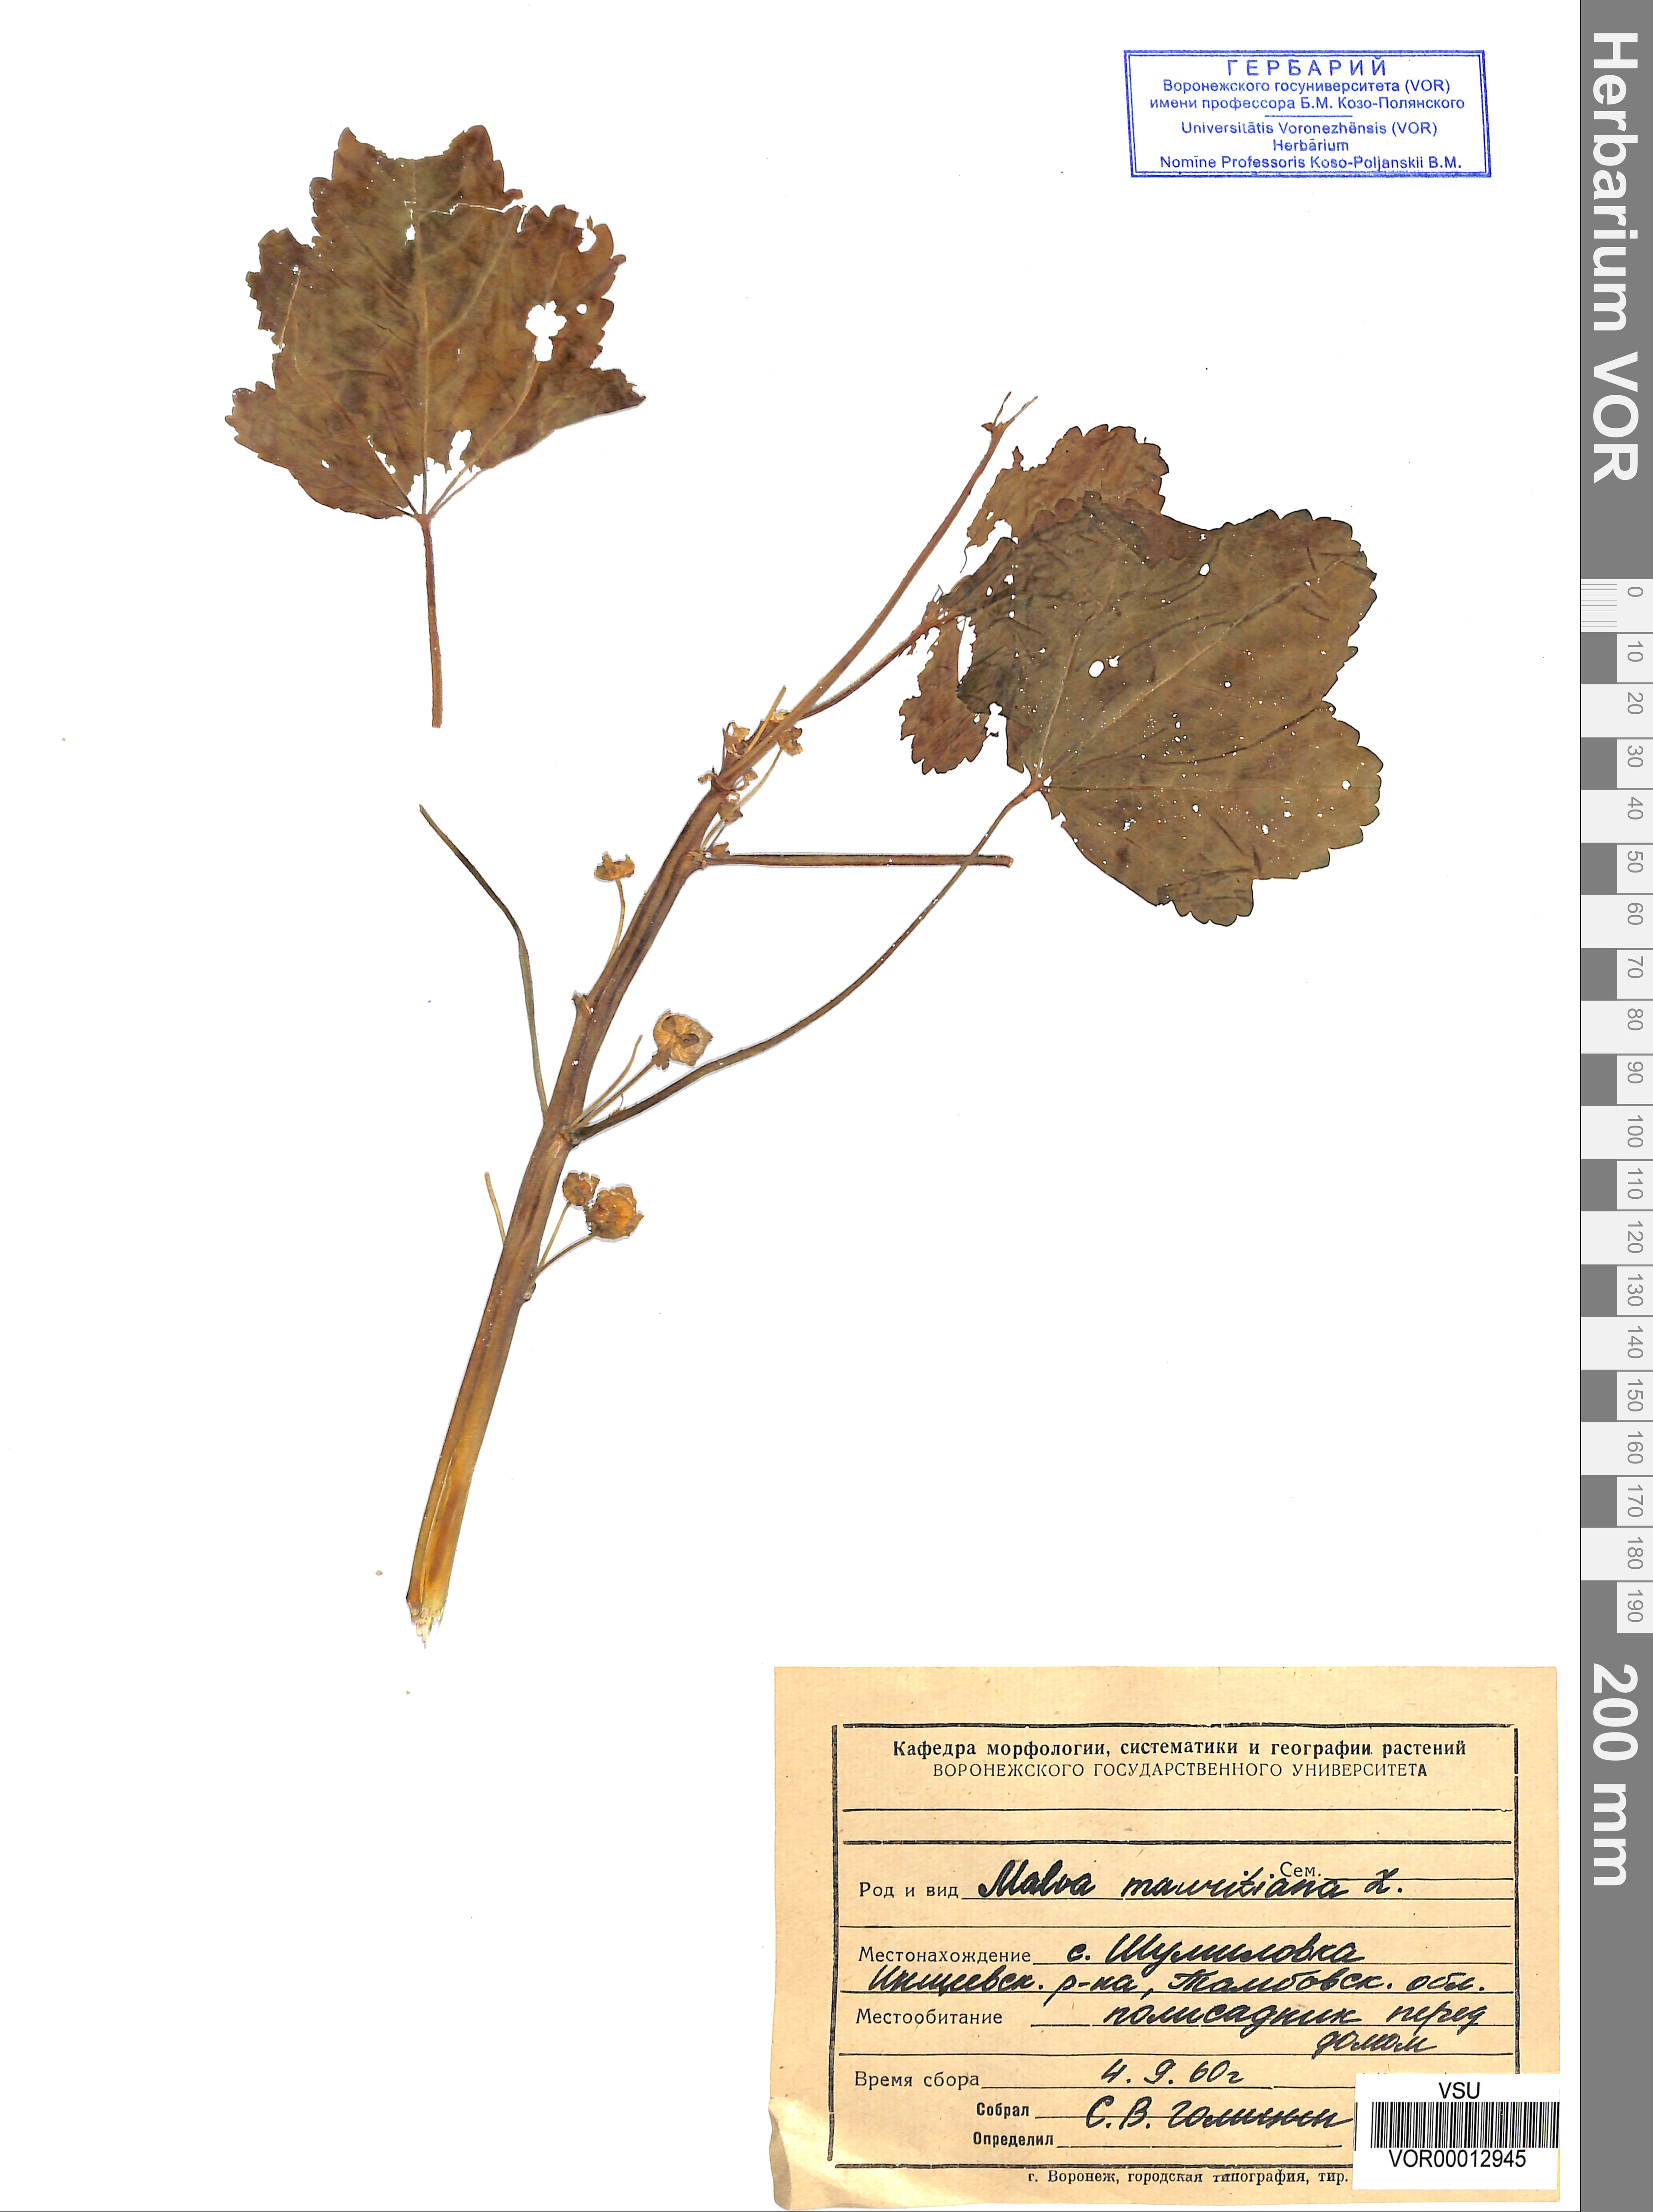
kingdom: Plantae
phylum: Tracheophyta
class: Magnoliopsida
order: Malvales
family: Malvaceae
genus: Malva
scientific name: Malva sylvestris
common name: Common mallow
